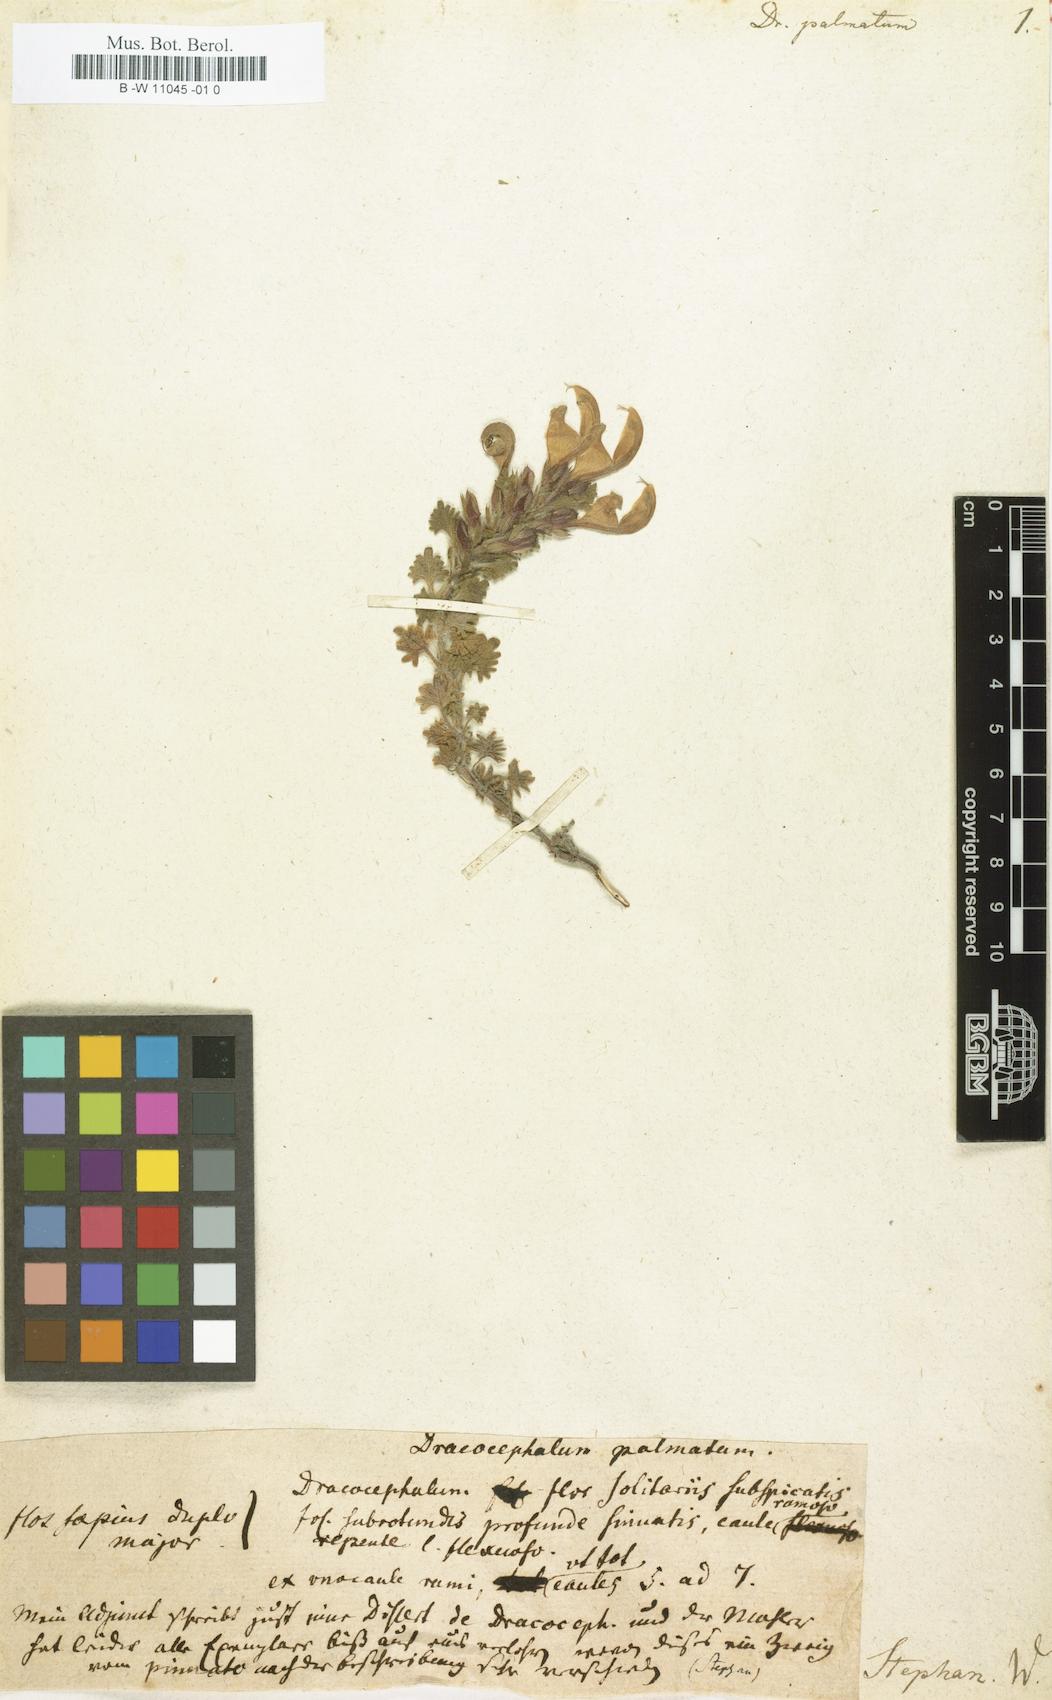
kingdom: Plantae
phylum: Tracheophyta
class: Magnoliopsida
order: Lamiales
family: Lamiaceae
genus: Dracocephalum
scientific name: Dracocephalum palmatum
